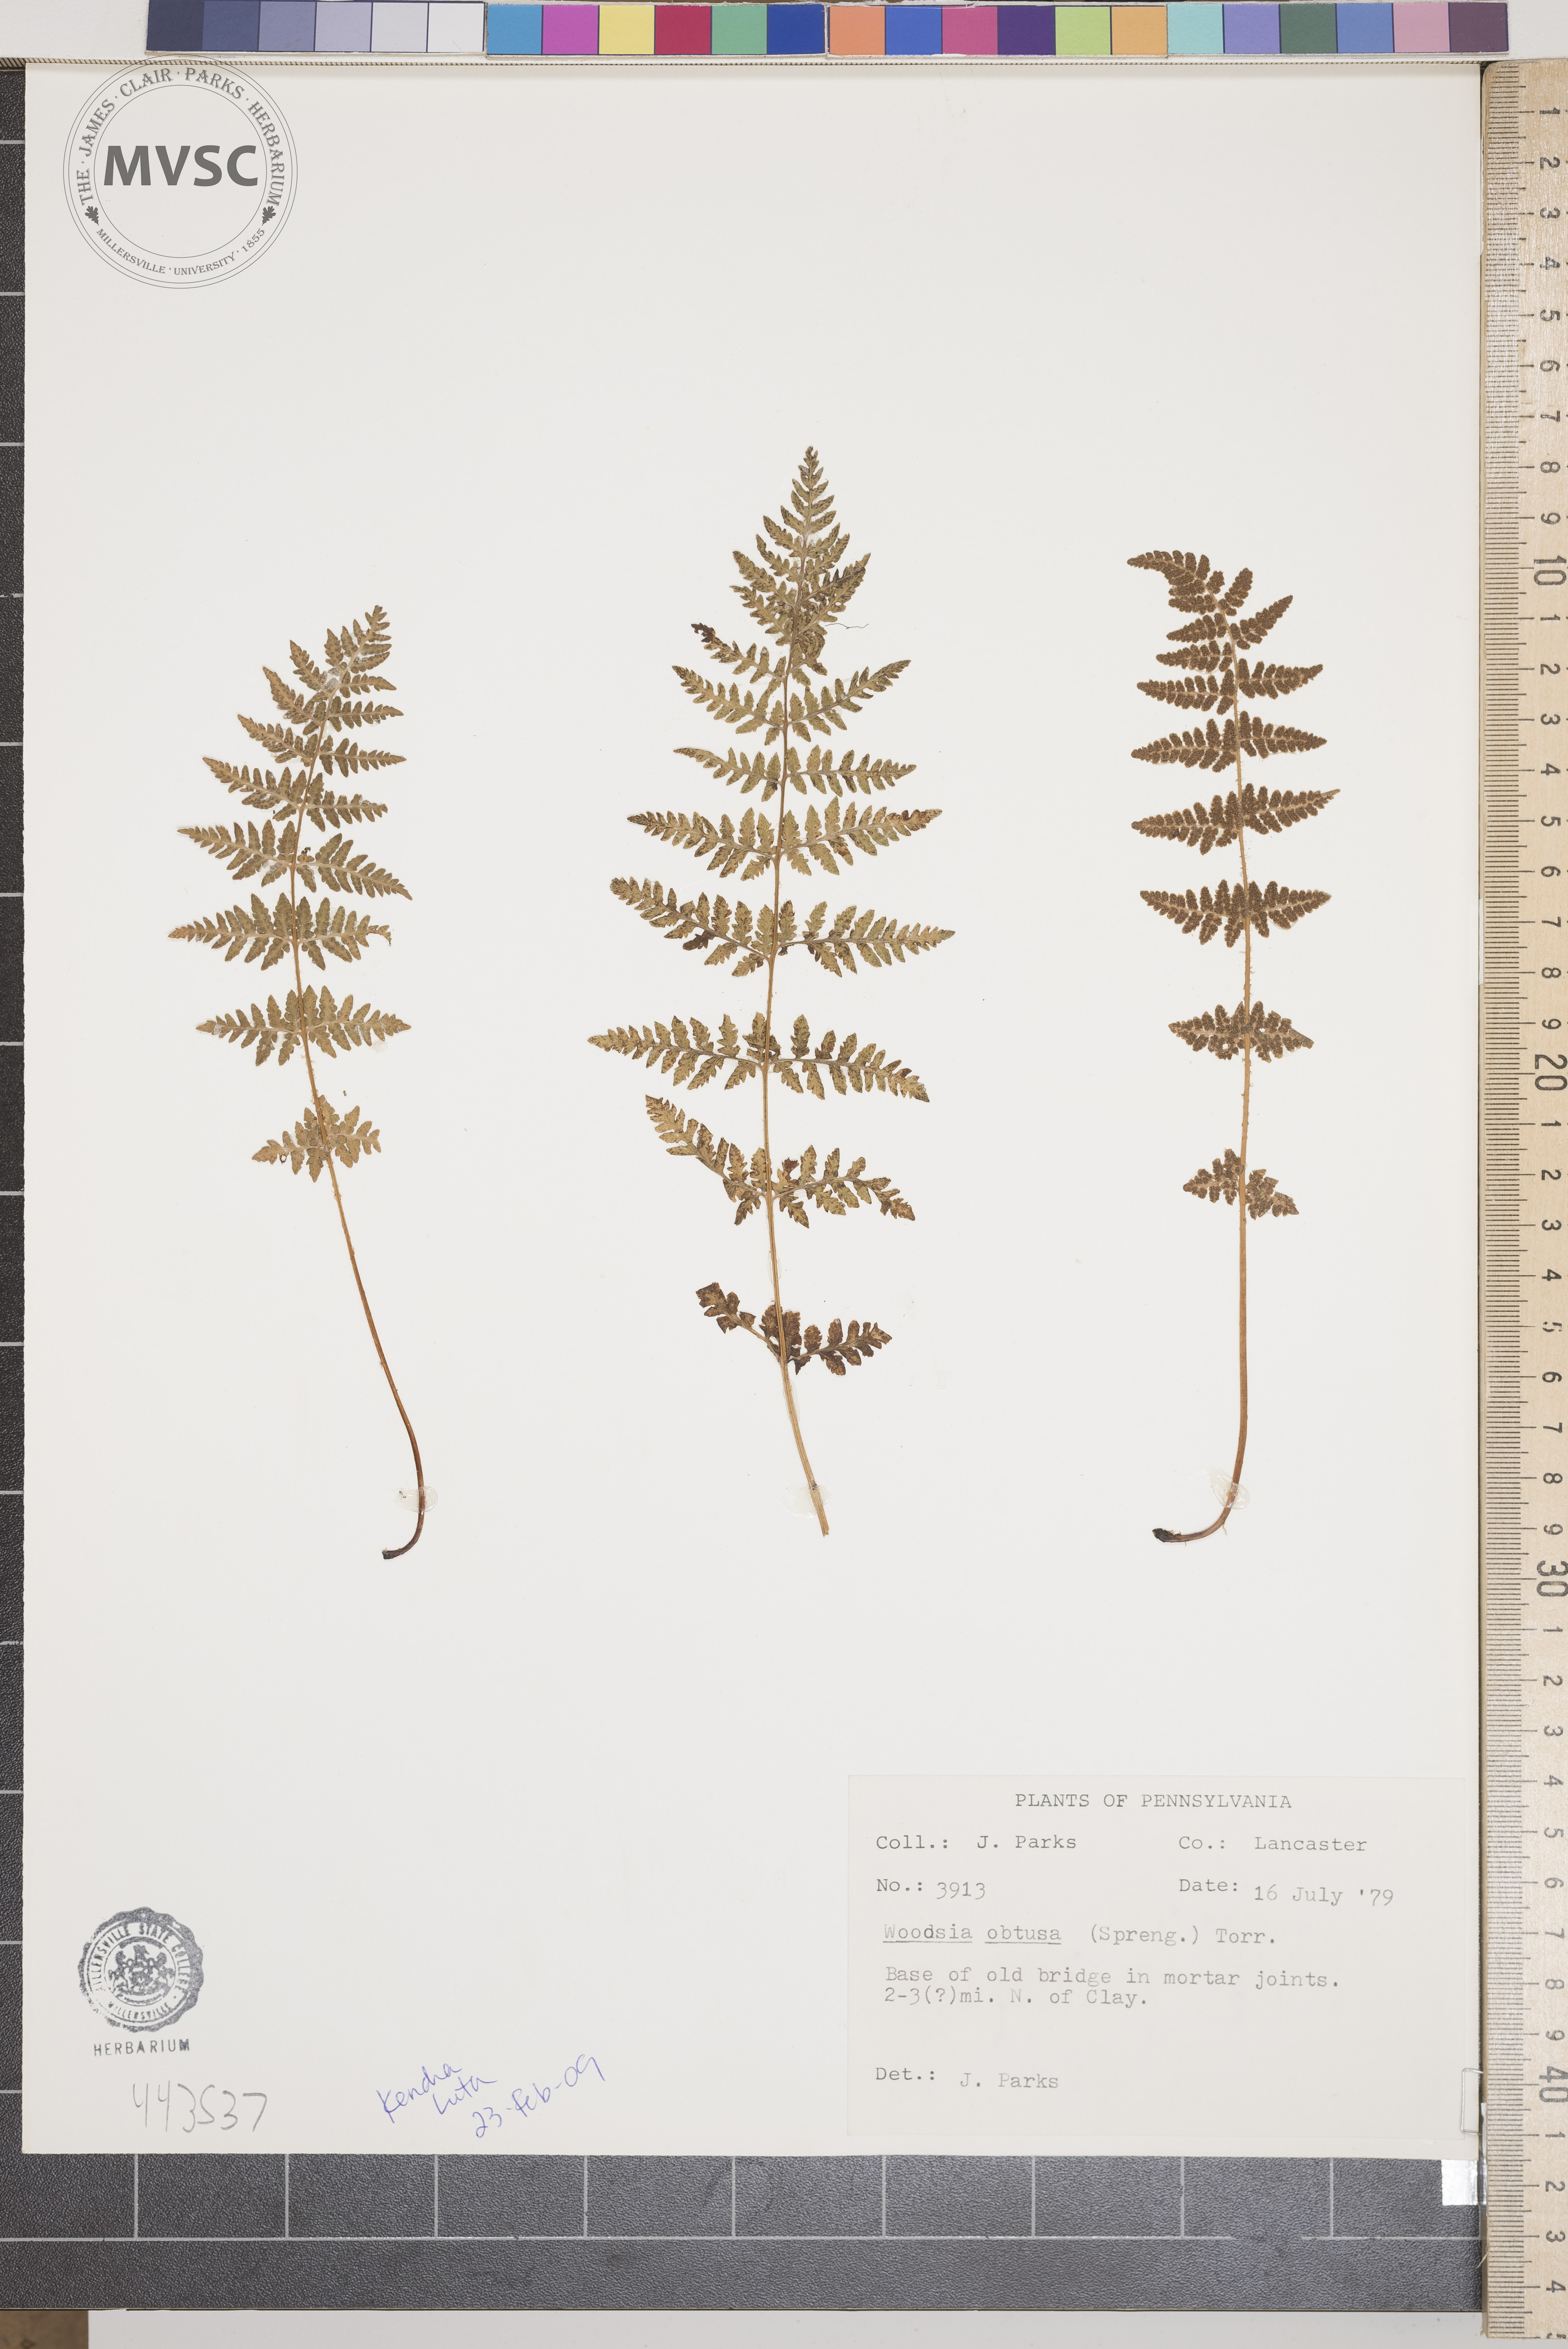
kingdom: Plantae
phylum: Tracheophyta
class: Polypodiopsida
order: Polypodiales
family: Woodsiaceae
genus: Physematium
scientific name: Physematium obtusum
